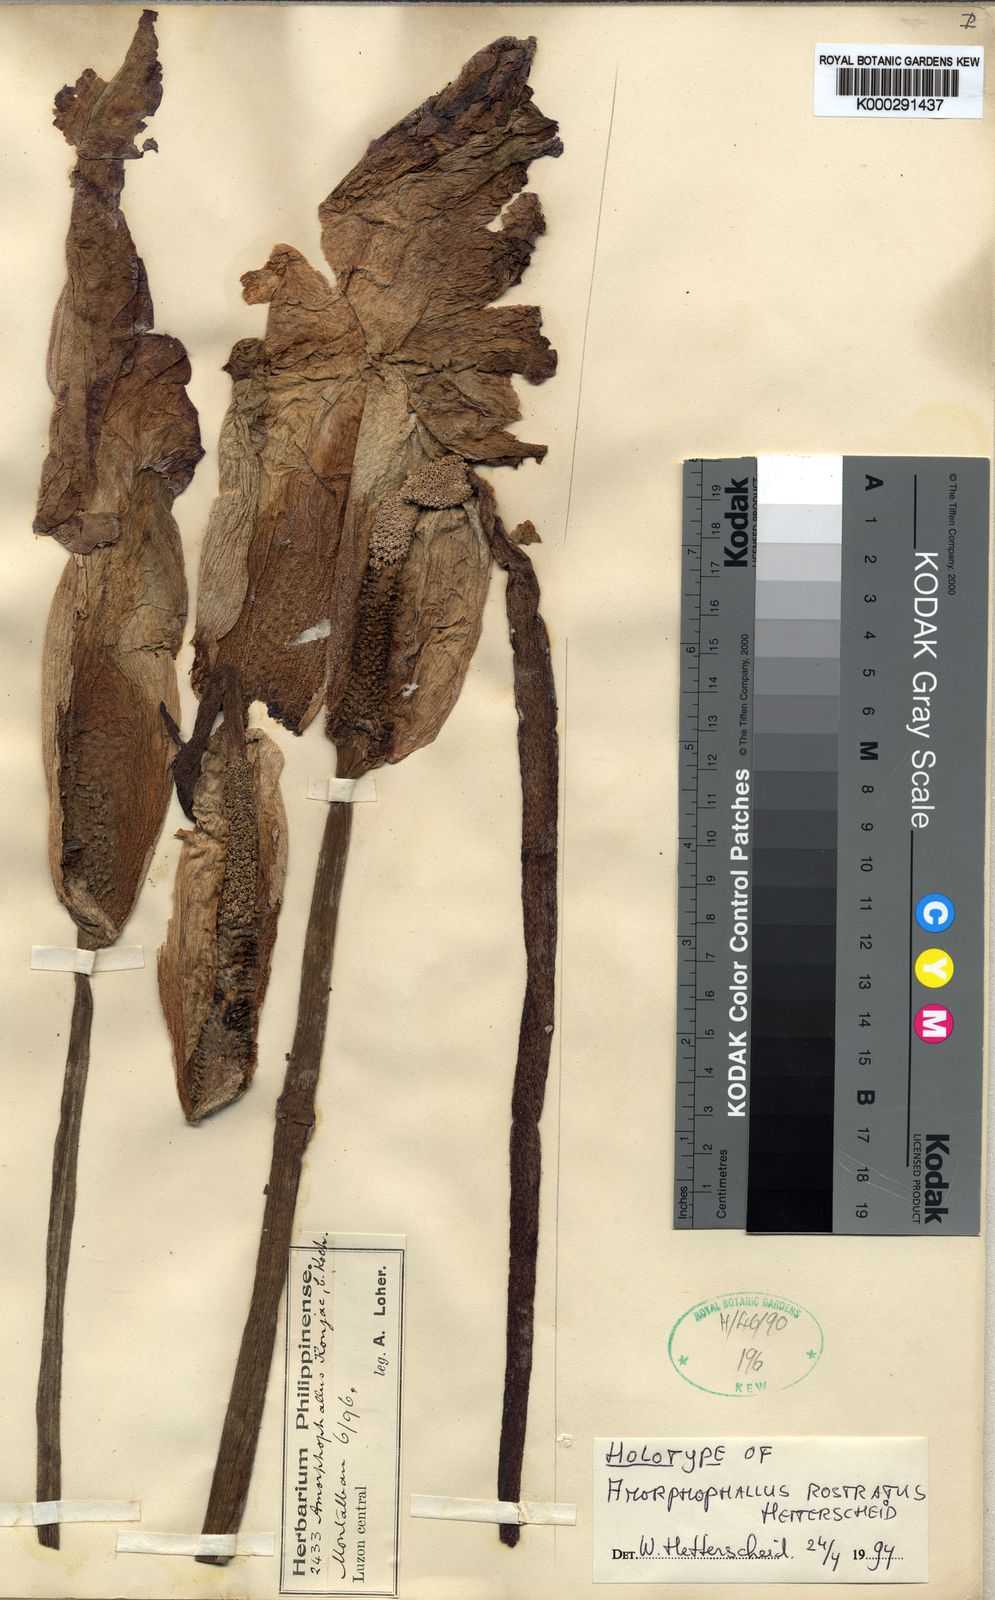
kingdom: Plantae
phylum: Tracheophyta
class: Liliopsida
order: Alismatales
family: Araceae
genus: Amorphophallus
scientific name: Amorphophallus rostratus
